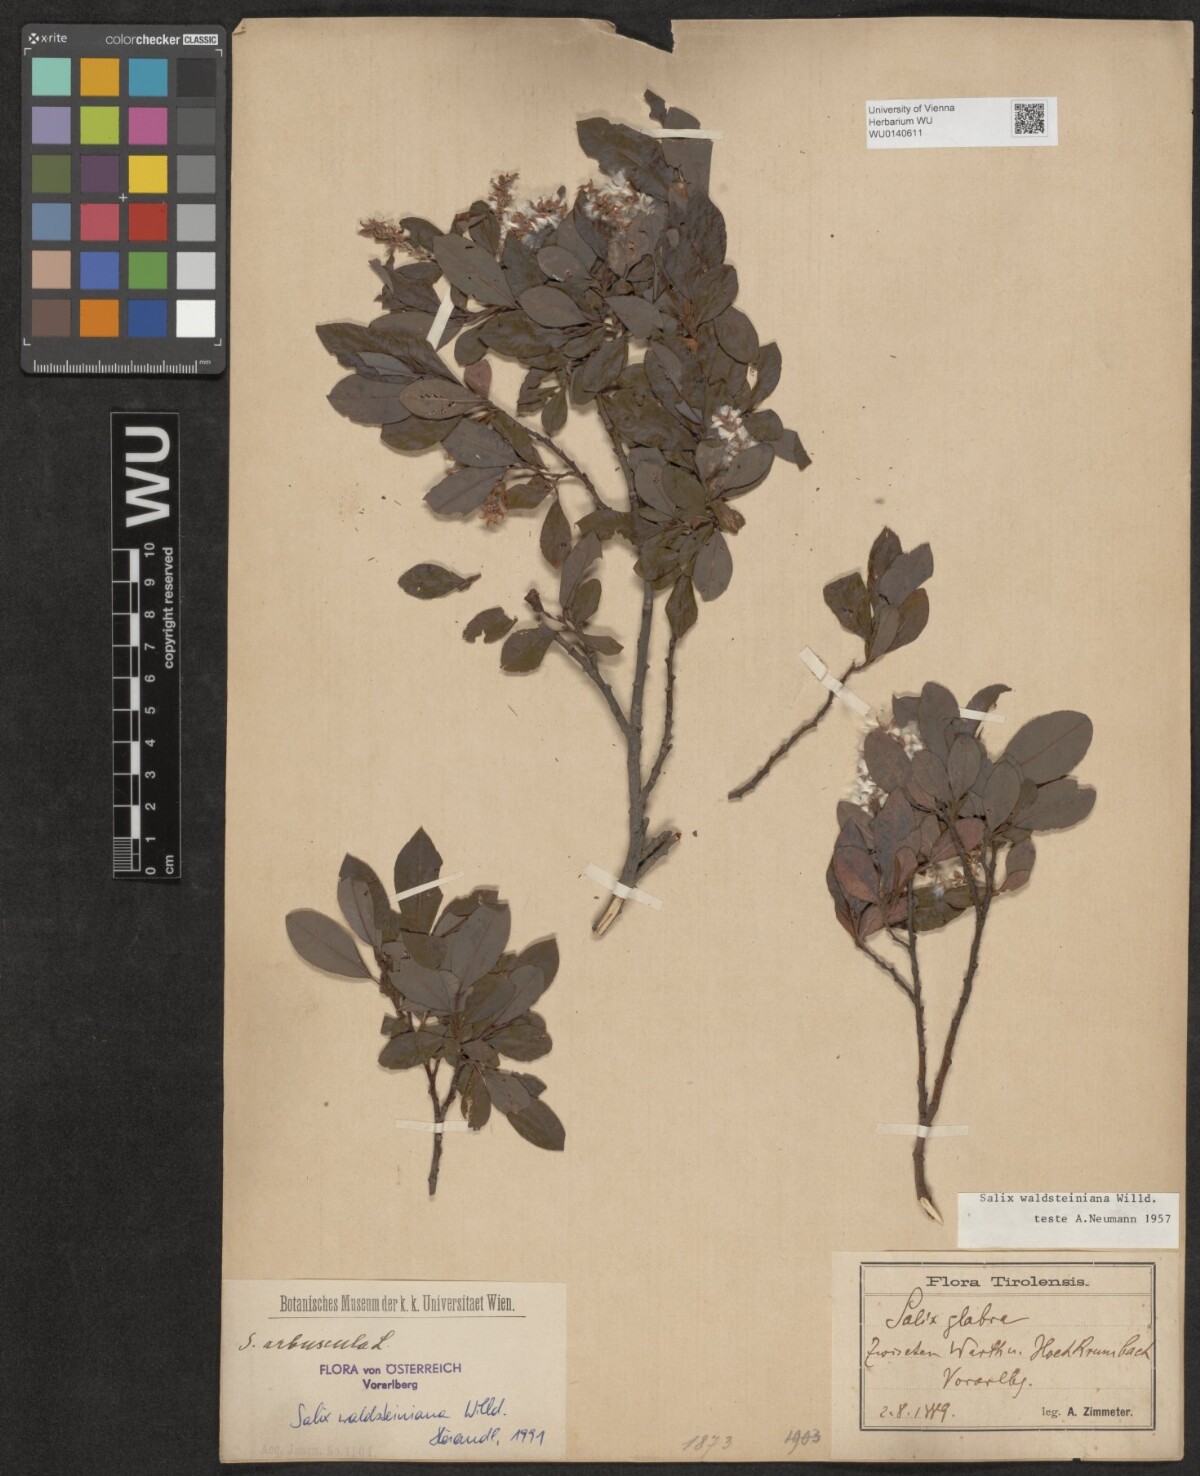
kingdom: Plantae
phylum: Tracheophyta
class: Magnoliopsida
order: Malpighiales
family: Salicaceae
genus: Salix
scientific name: Salix waldsteiniana
